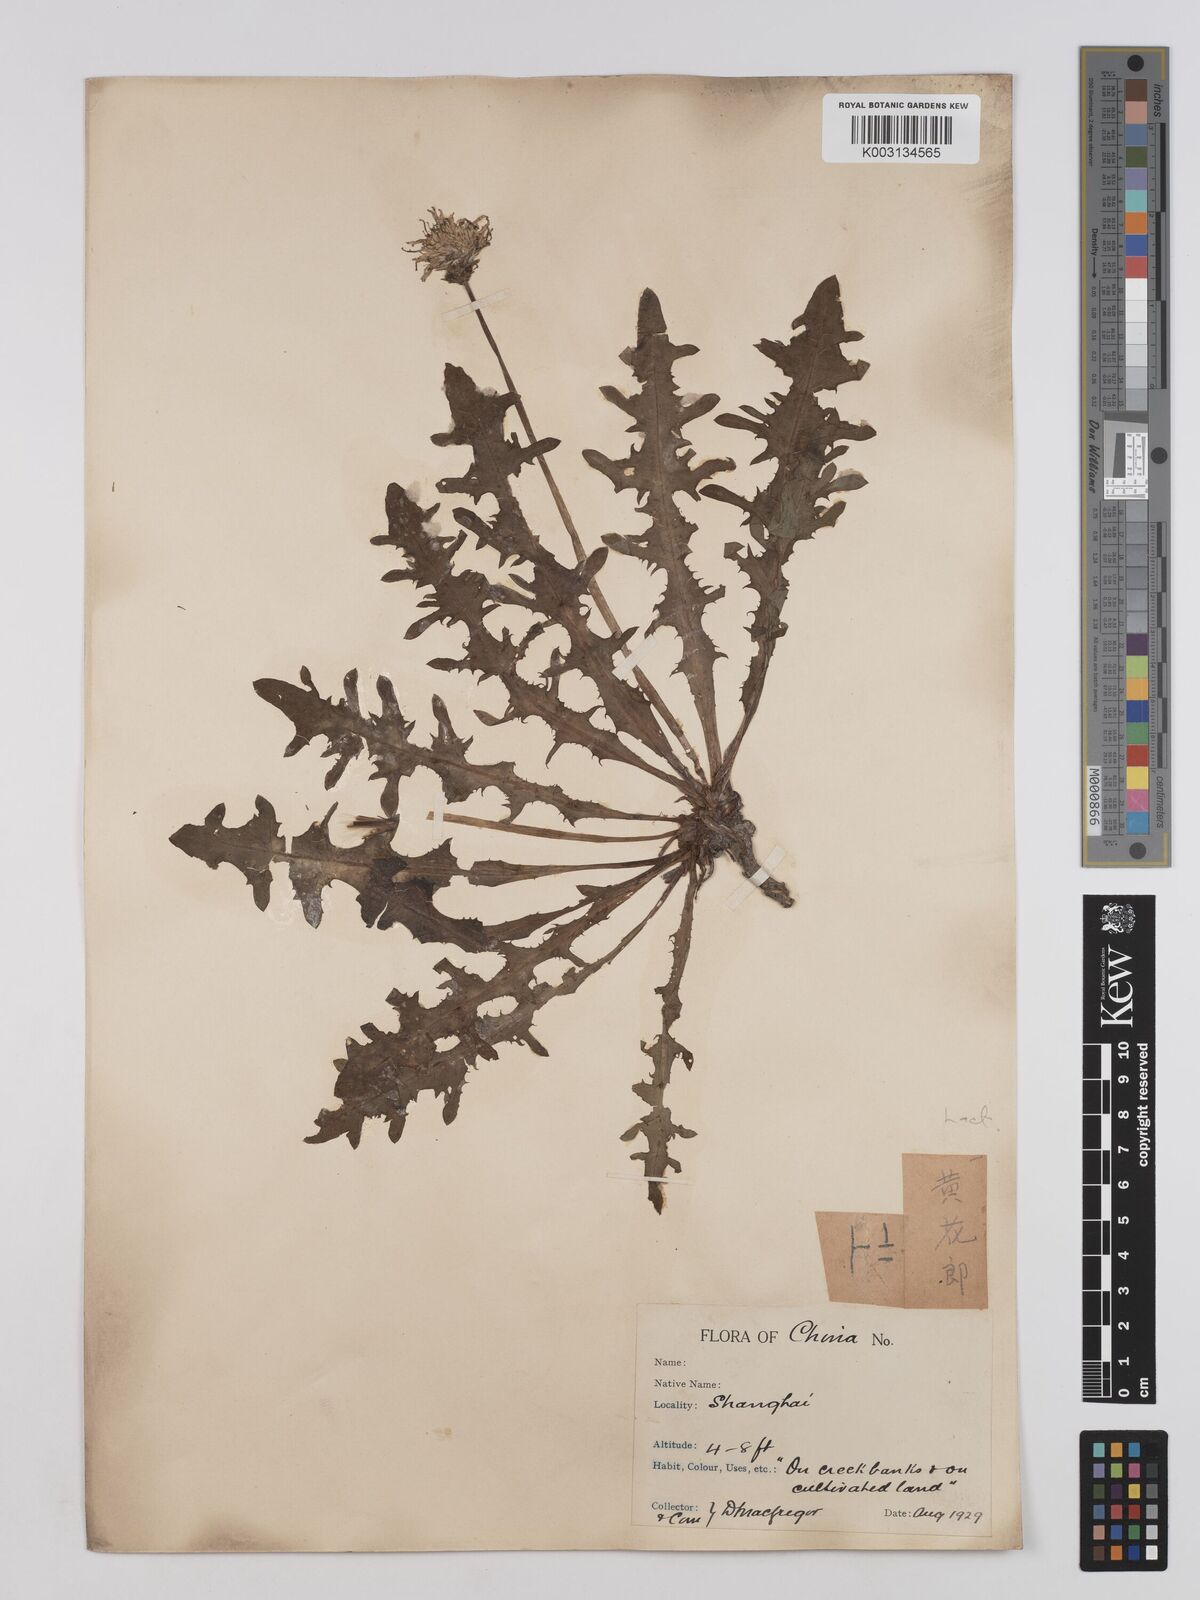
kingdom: Plantae
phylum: Tracheophyta
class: Magnoliopsida
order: Asterales
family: Asteraceae
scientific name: Asteraceae
